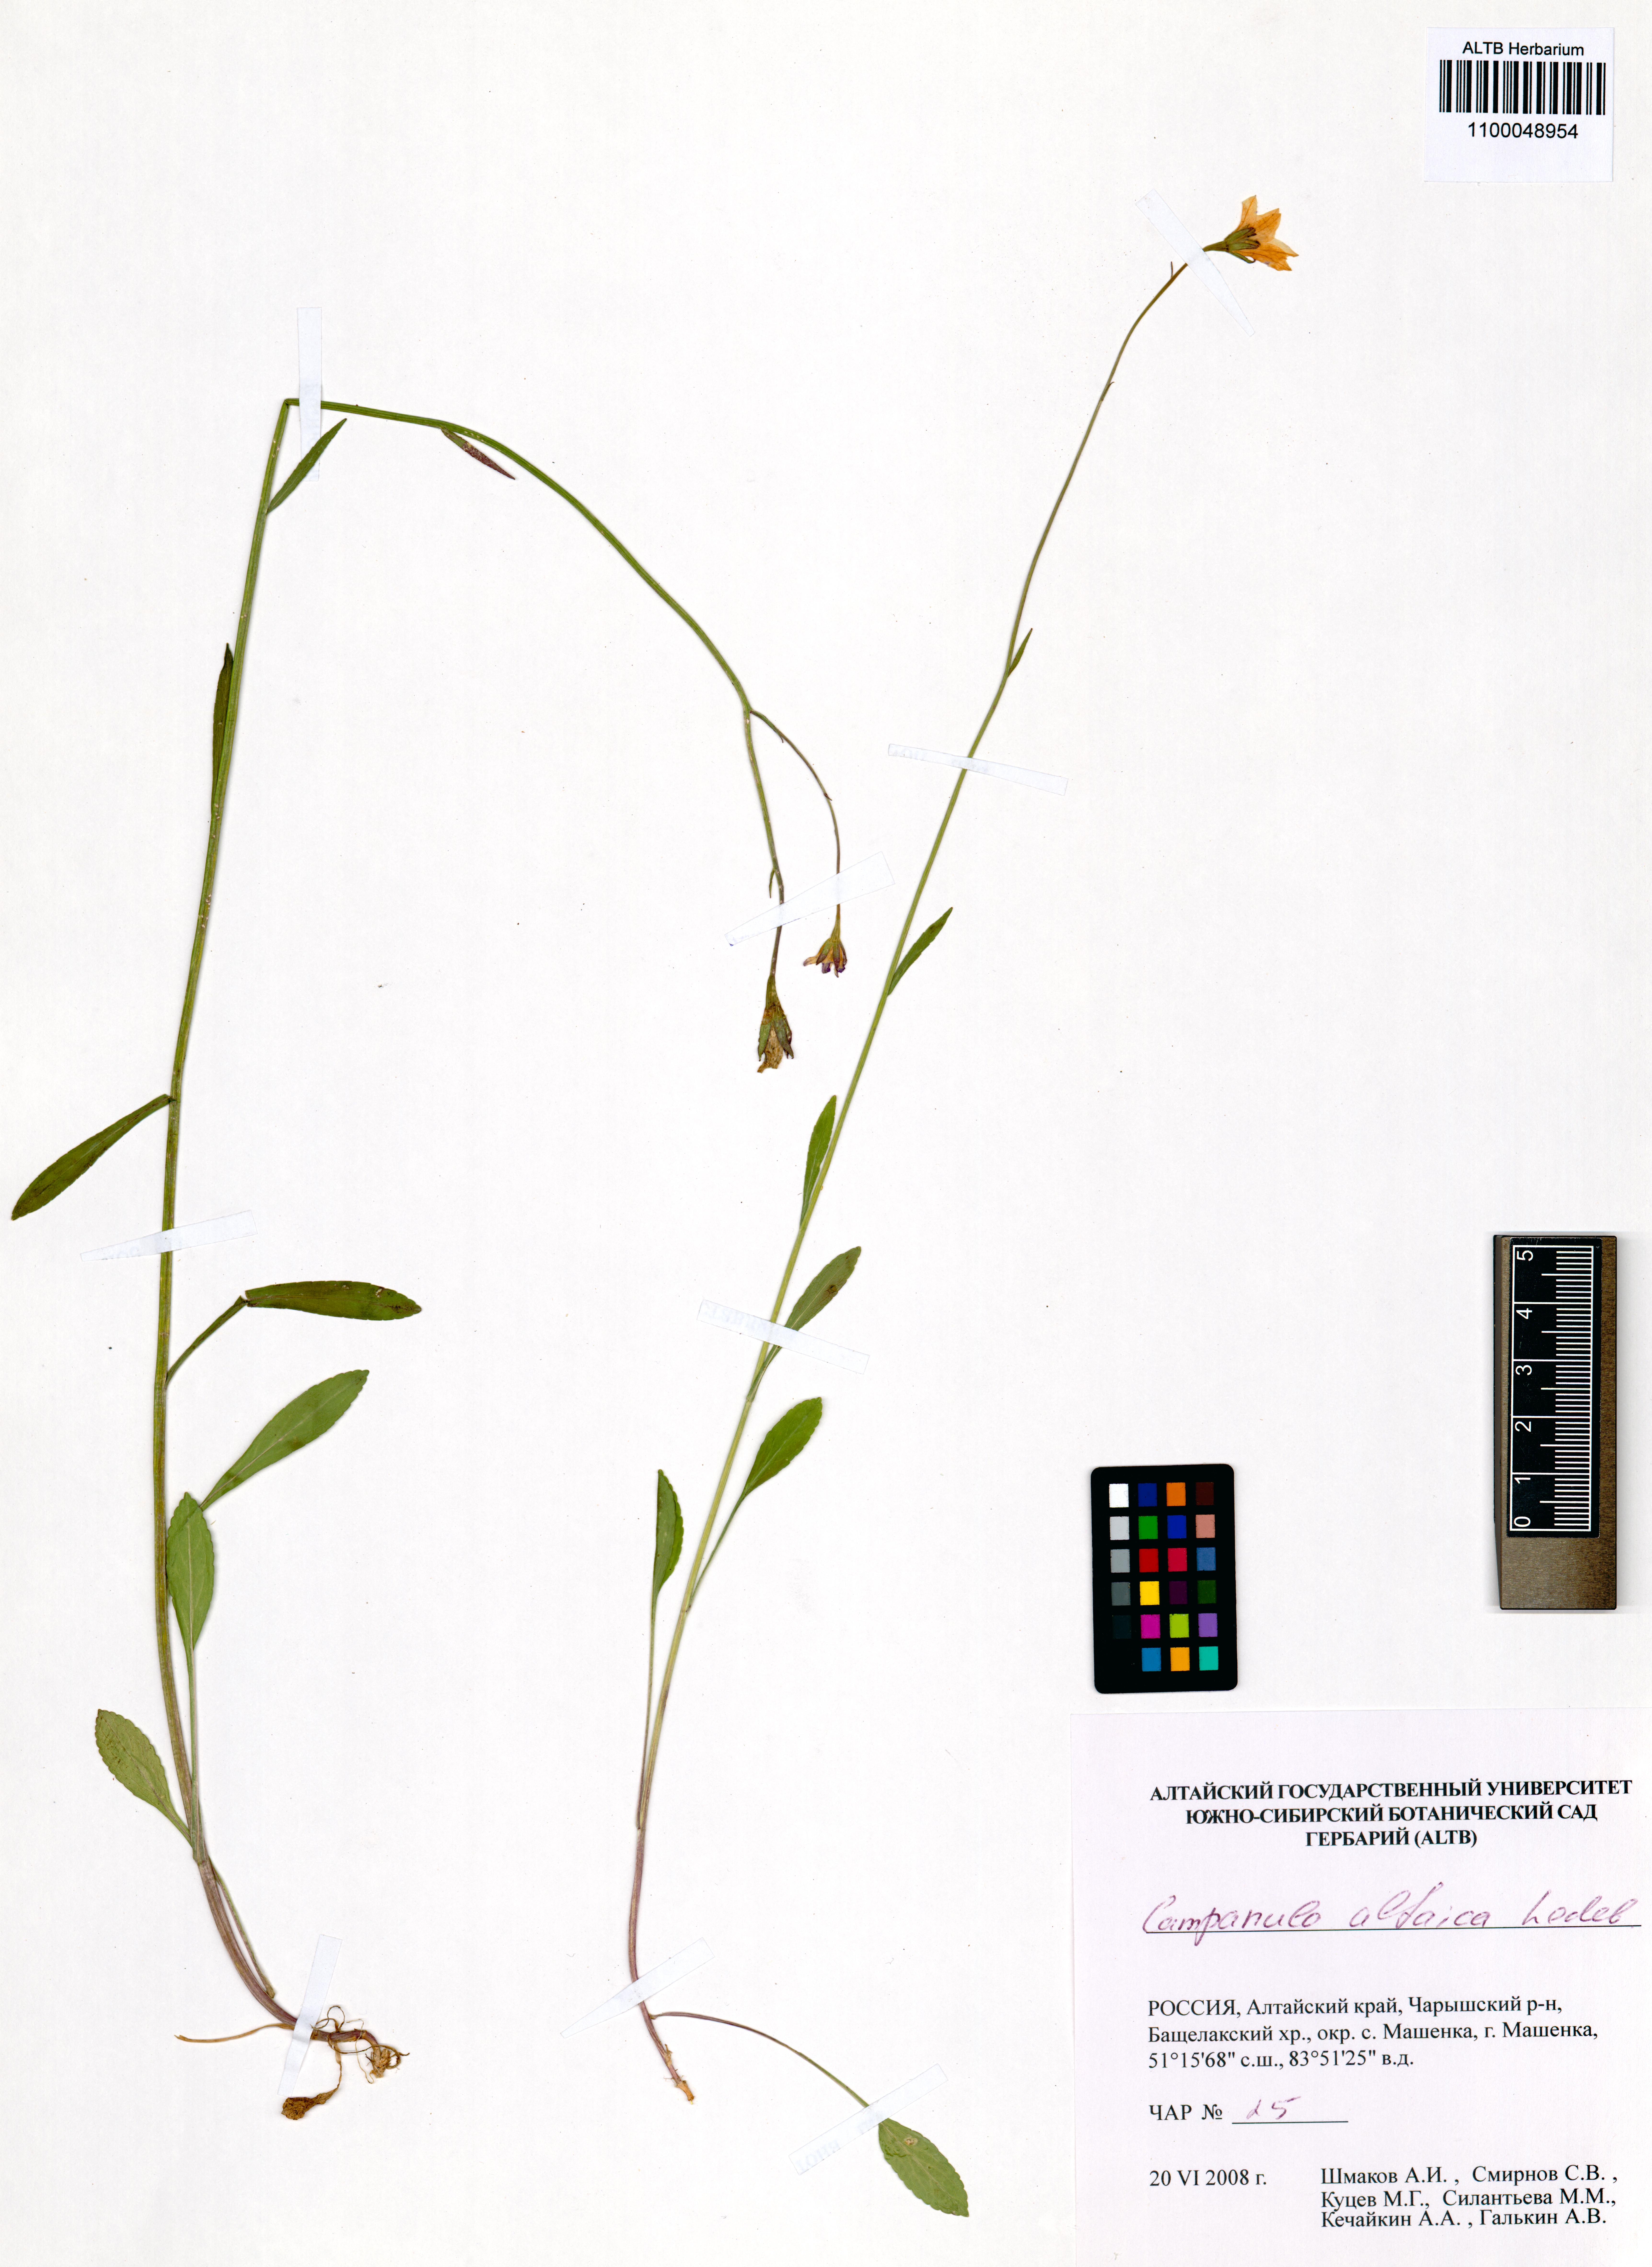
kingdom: Plantae
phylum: Tracheophyta
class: Magnoliopsida
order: Asterales
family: Campanulaceae
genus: Campanula
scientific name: Campanula stevenii
